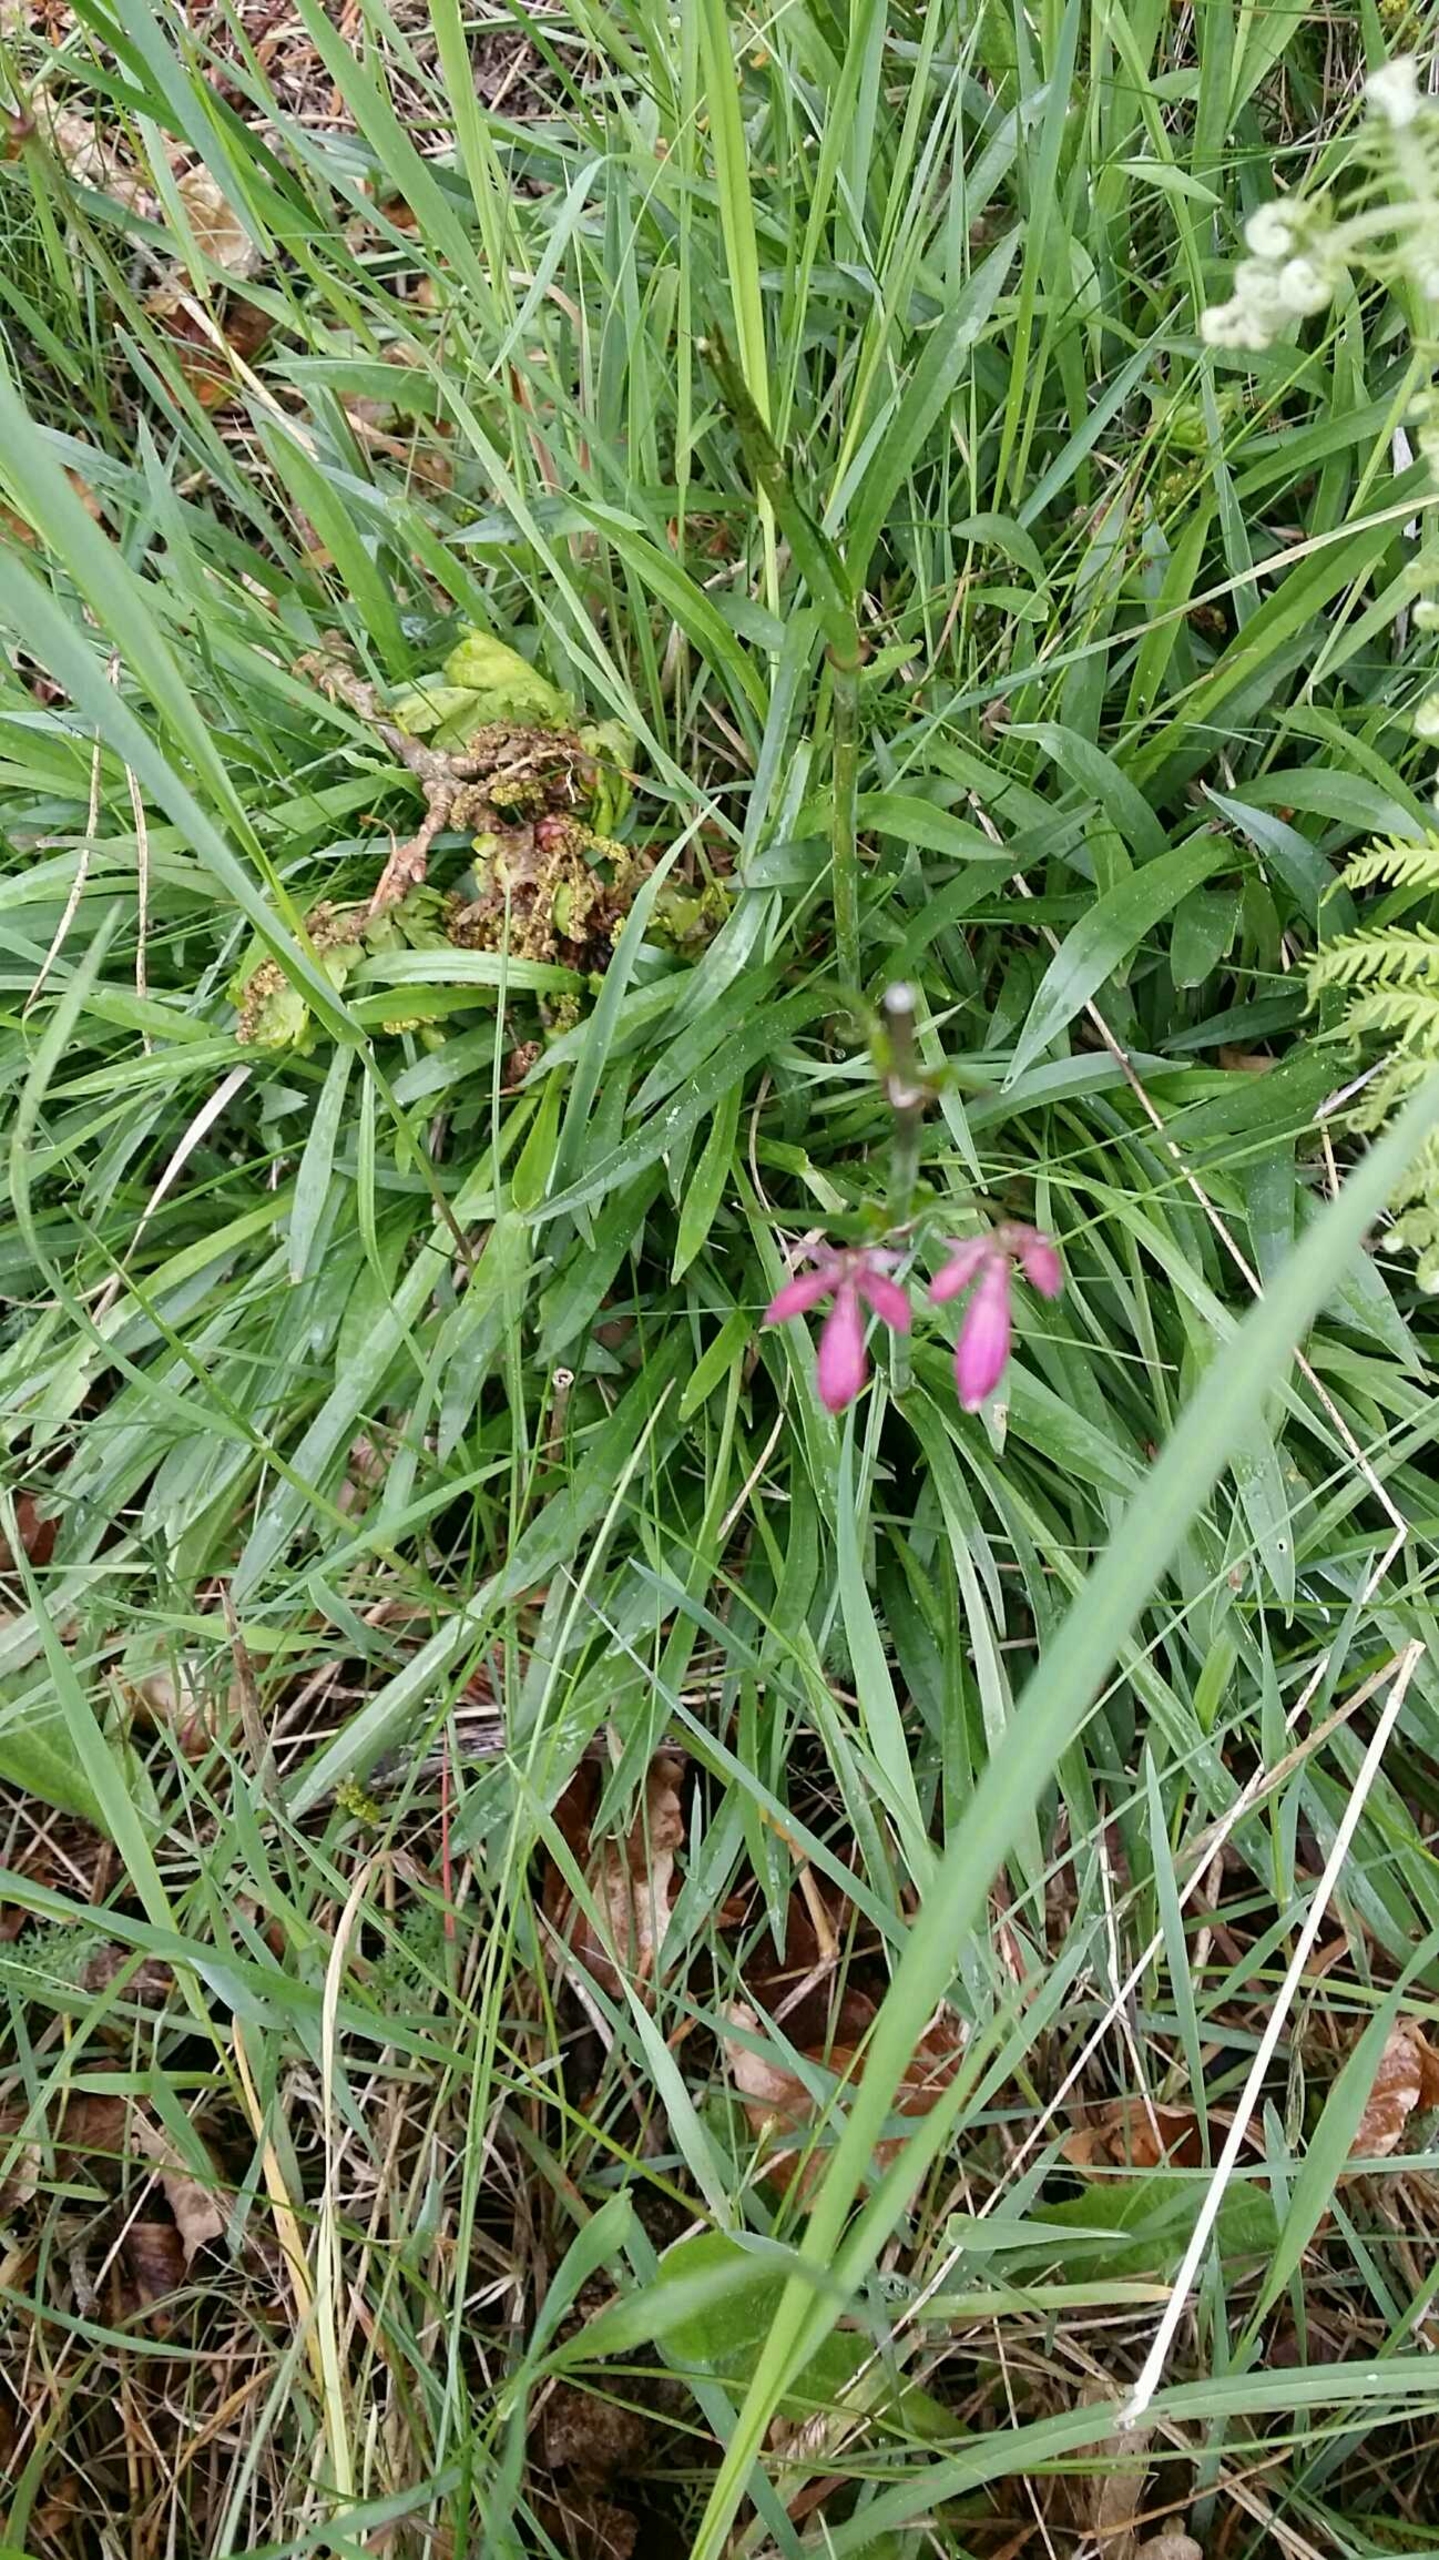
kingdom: Plantae
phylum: Tracheophyta
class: Magnoliopsida
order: Caryophyllales
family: Caryophyllaceae
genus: Viscaria
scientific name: Viscaria vulgaris
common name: Tjærenellike
